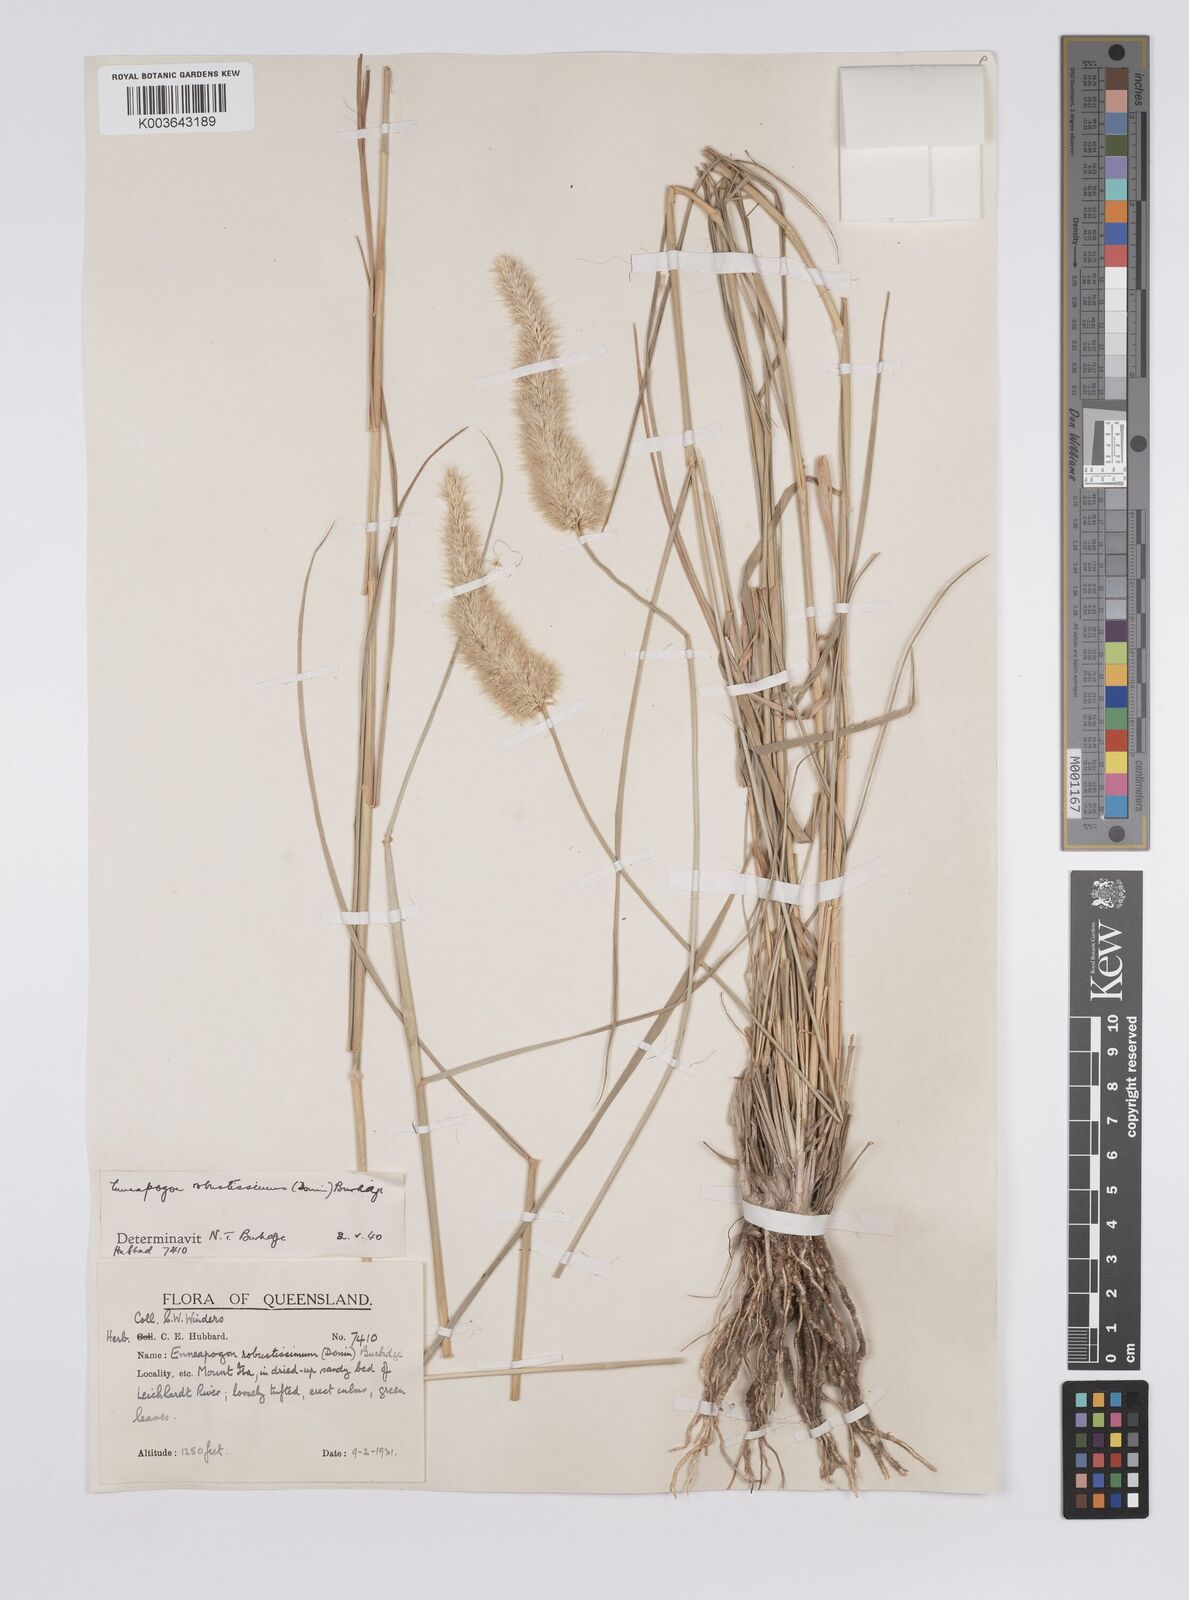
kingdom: Plantae
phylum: Tracheophyta
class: Liliopsida
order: Poales
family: Poaceae
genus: Enneapogon
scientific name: Enneapogon robustissimus
